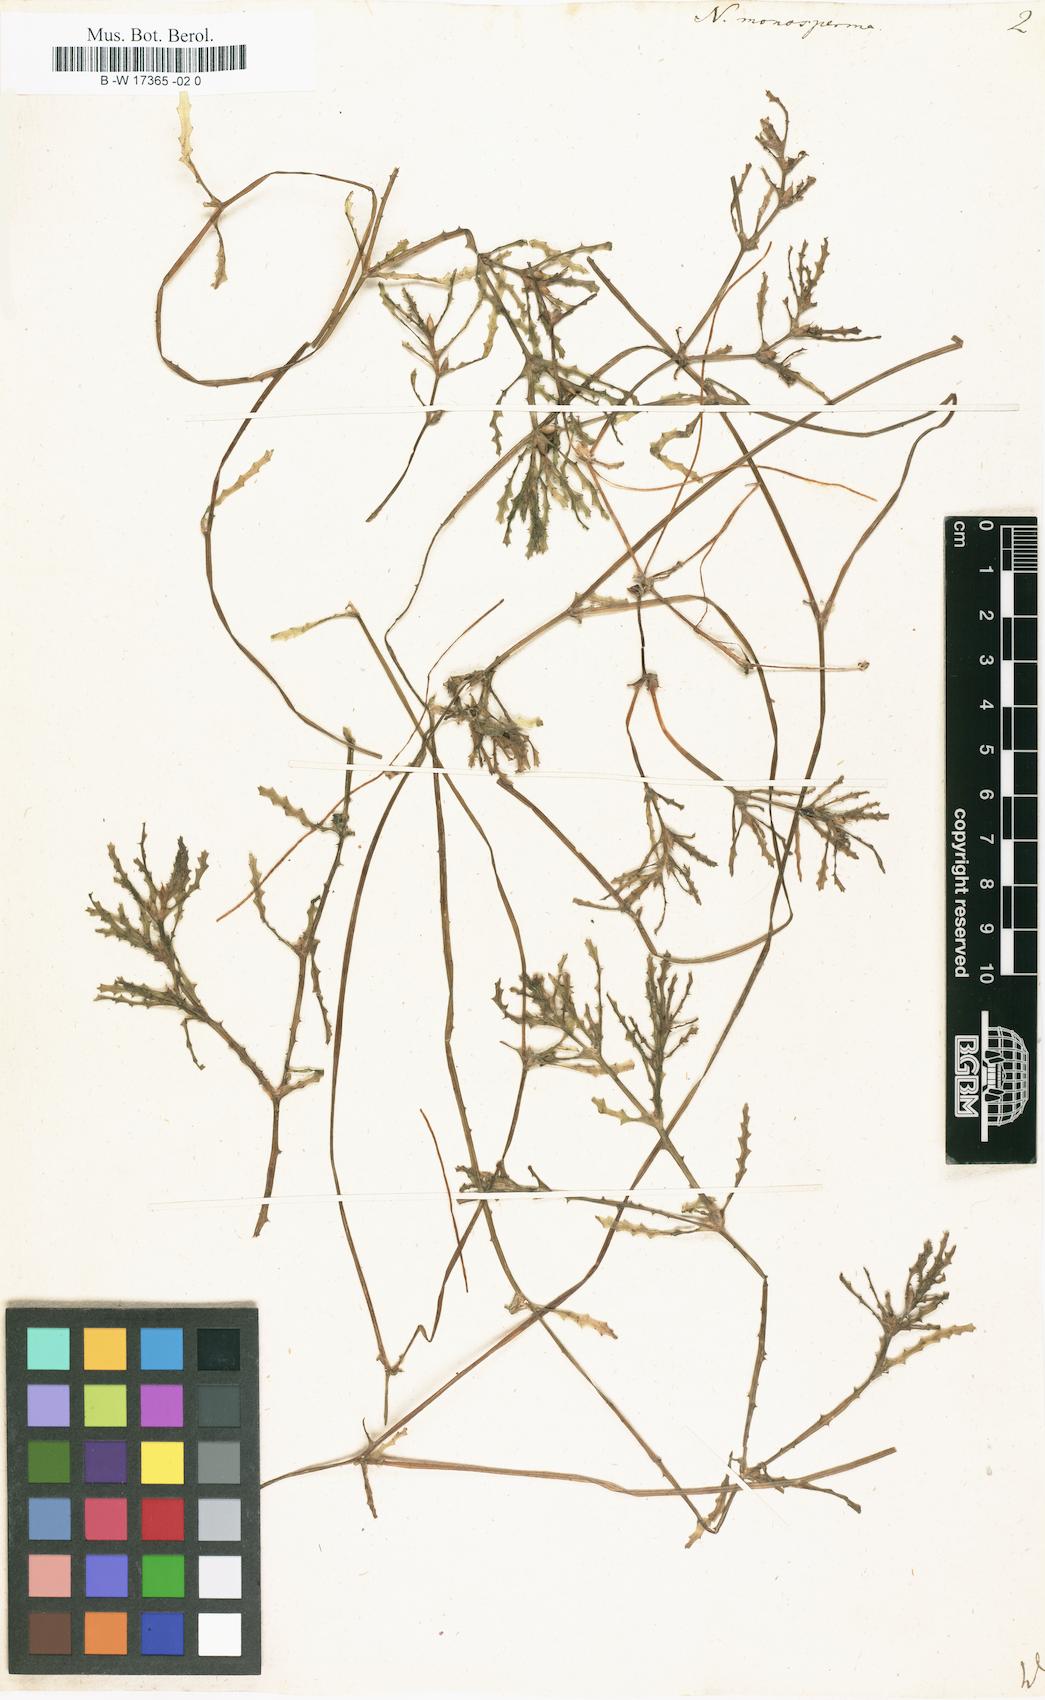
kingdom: Plantae
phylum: Tracheophyta
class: Liliopsida
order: Alismatales
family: Hydrocharitaceae
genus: Najas
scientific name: Najas major
